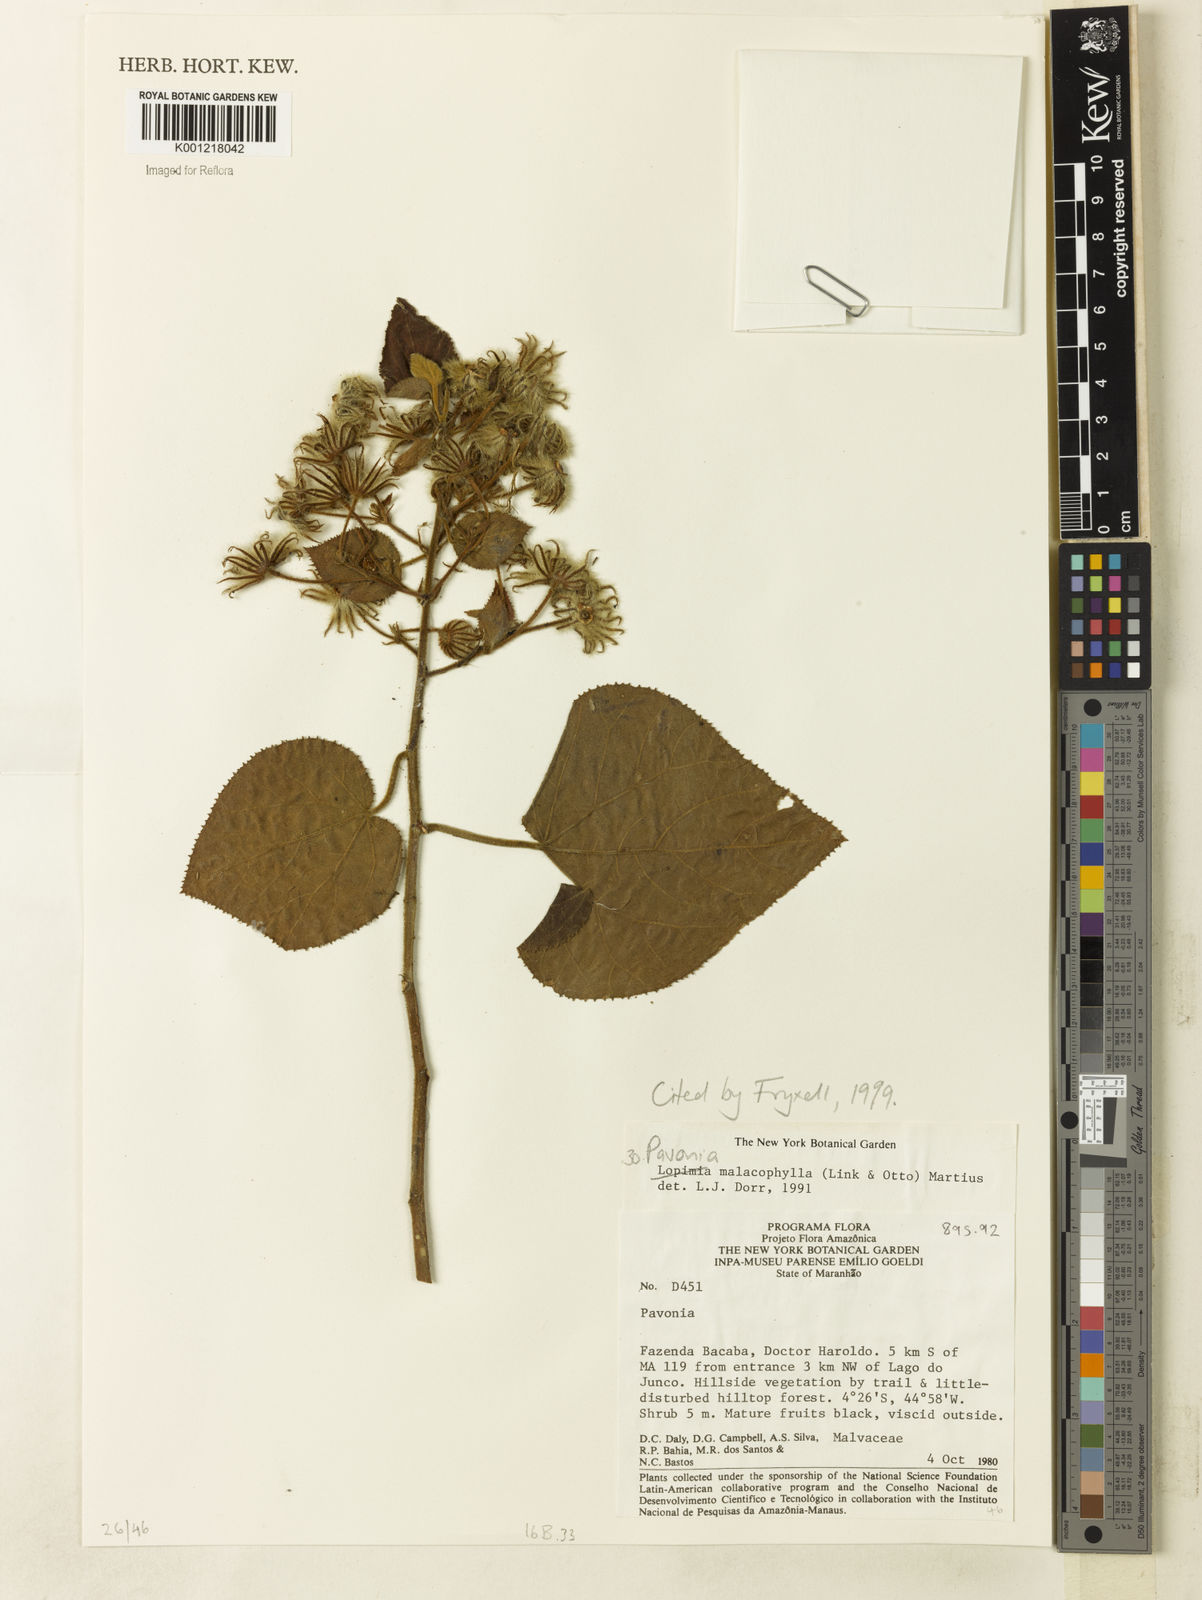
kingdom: Plantae
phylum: Tracheophyta
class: Magnoliopsida
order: Malvales
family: Malvaceae
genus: Pavonia
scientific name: Pavonia malacophylla
